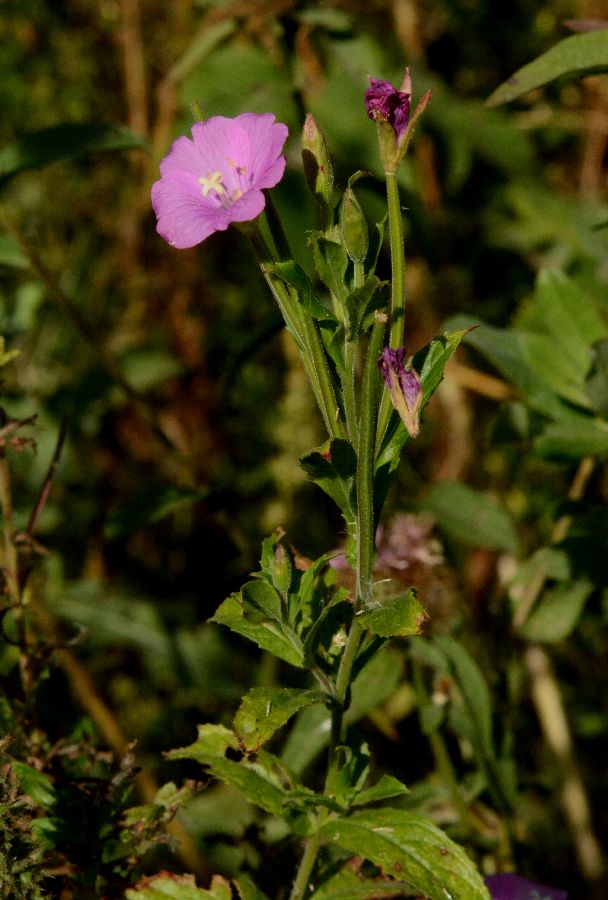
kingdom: Plantae
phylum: Tracheophyta
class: Magnoliopsida
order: Myrtales
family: Onagraceae
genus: Epilobium
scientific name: Epilobium hirsutum
